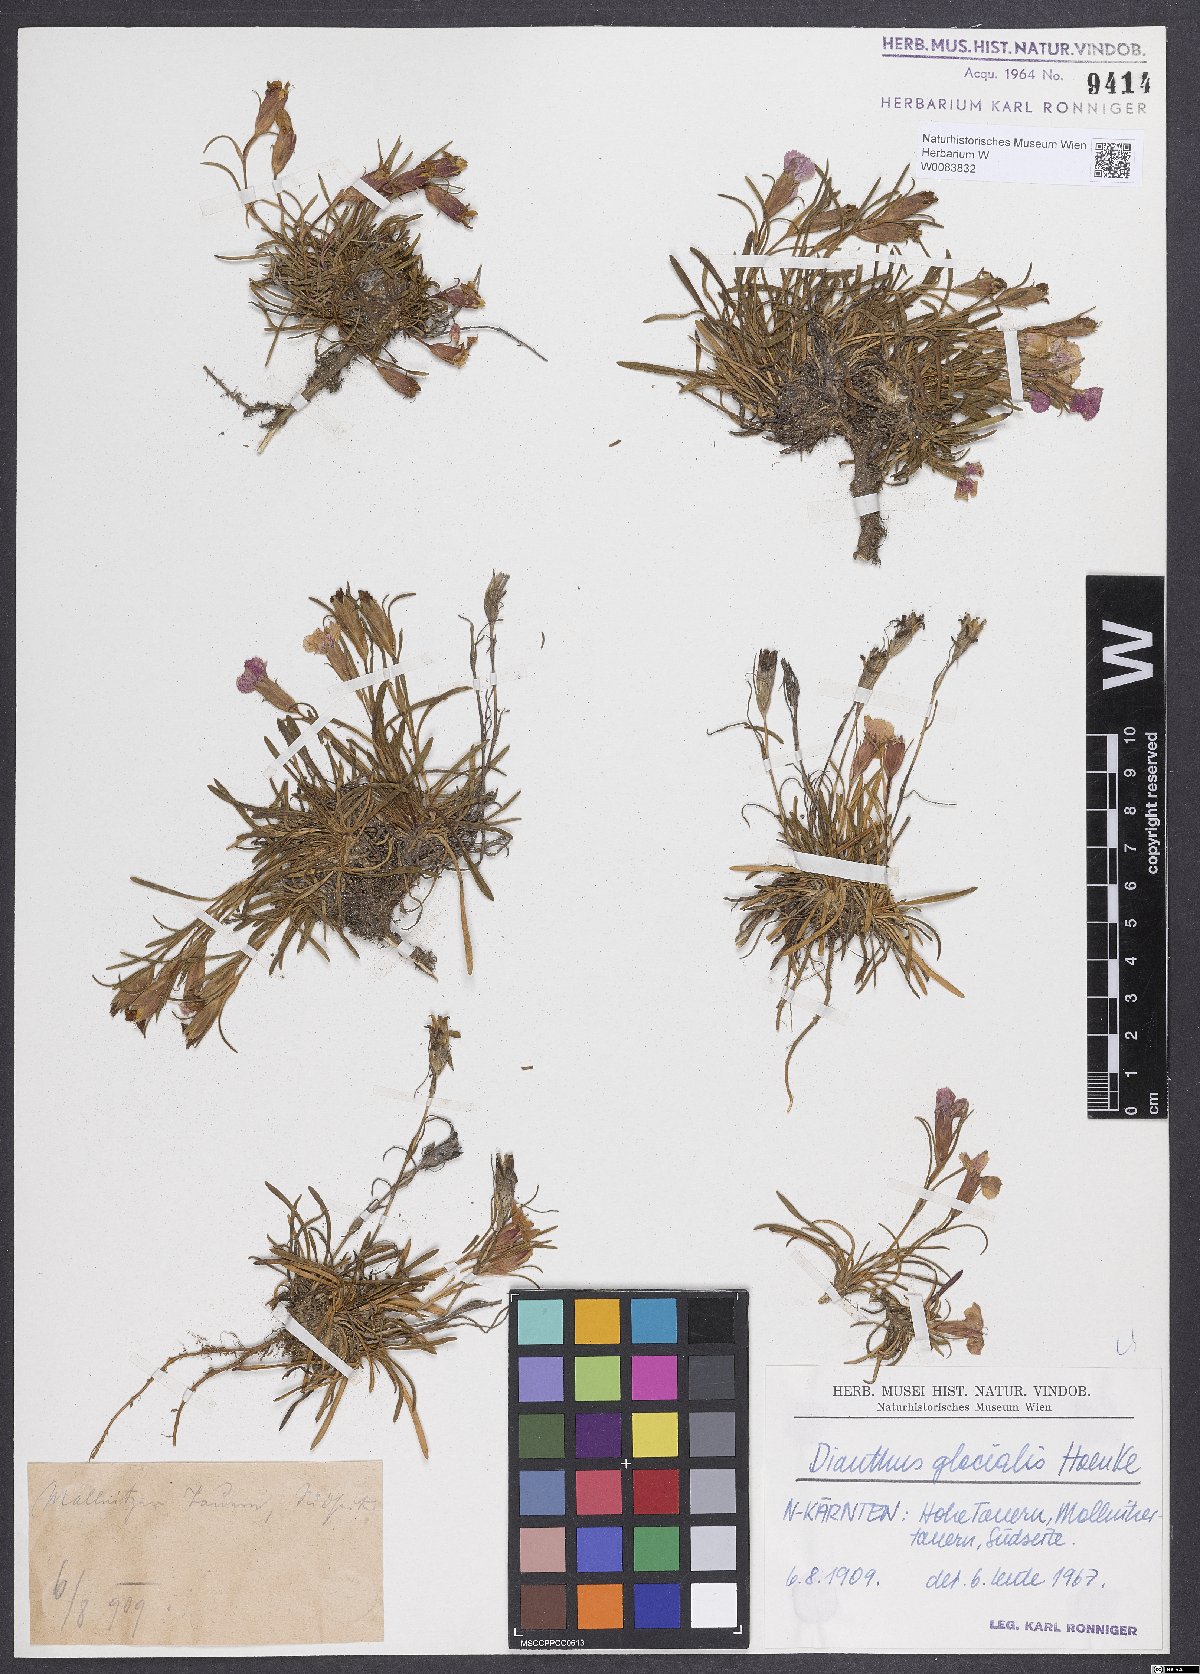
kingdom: Plantae
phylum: Tracheophyta
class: Magnoliopsida
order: Caryophyllales
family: Caryophyllaceae
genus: Dianthus
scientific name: Dianthus glacialis
